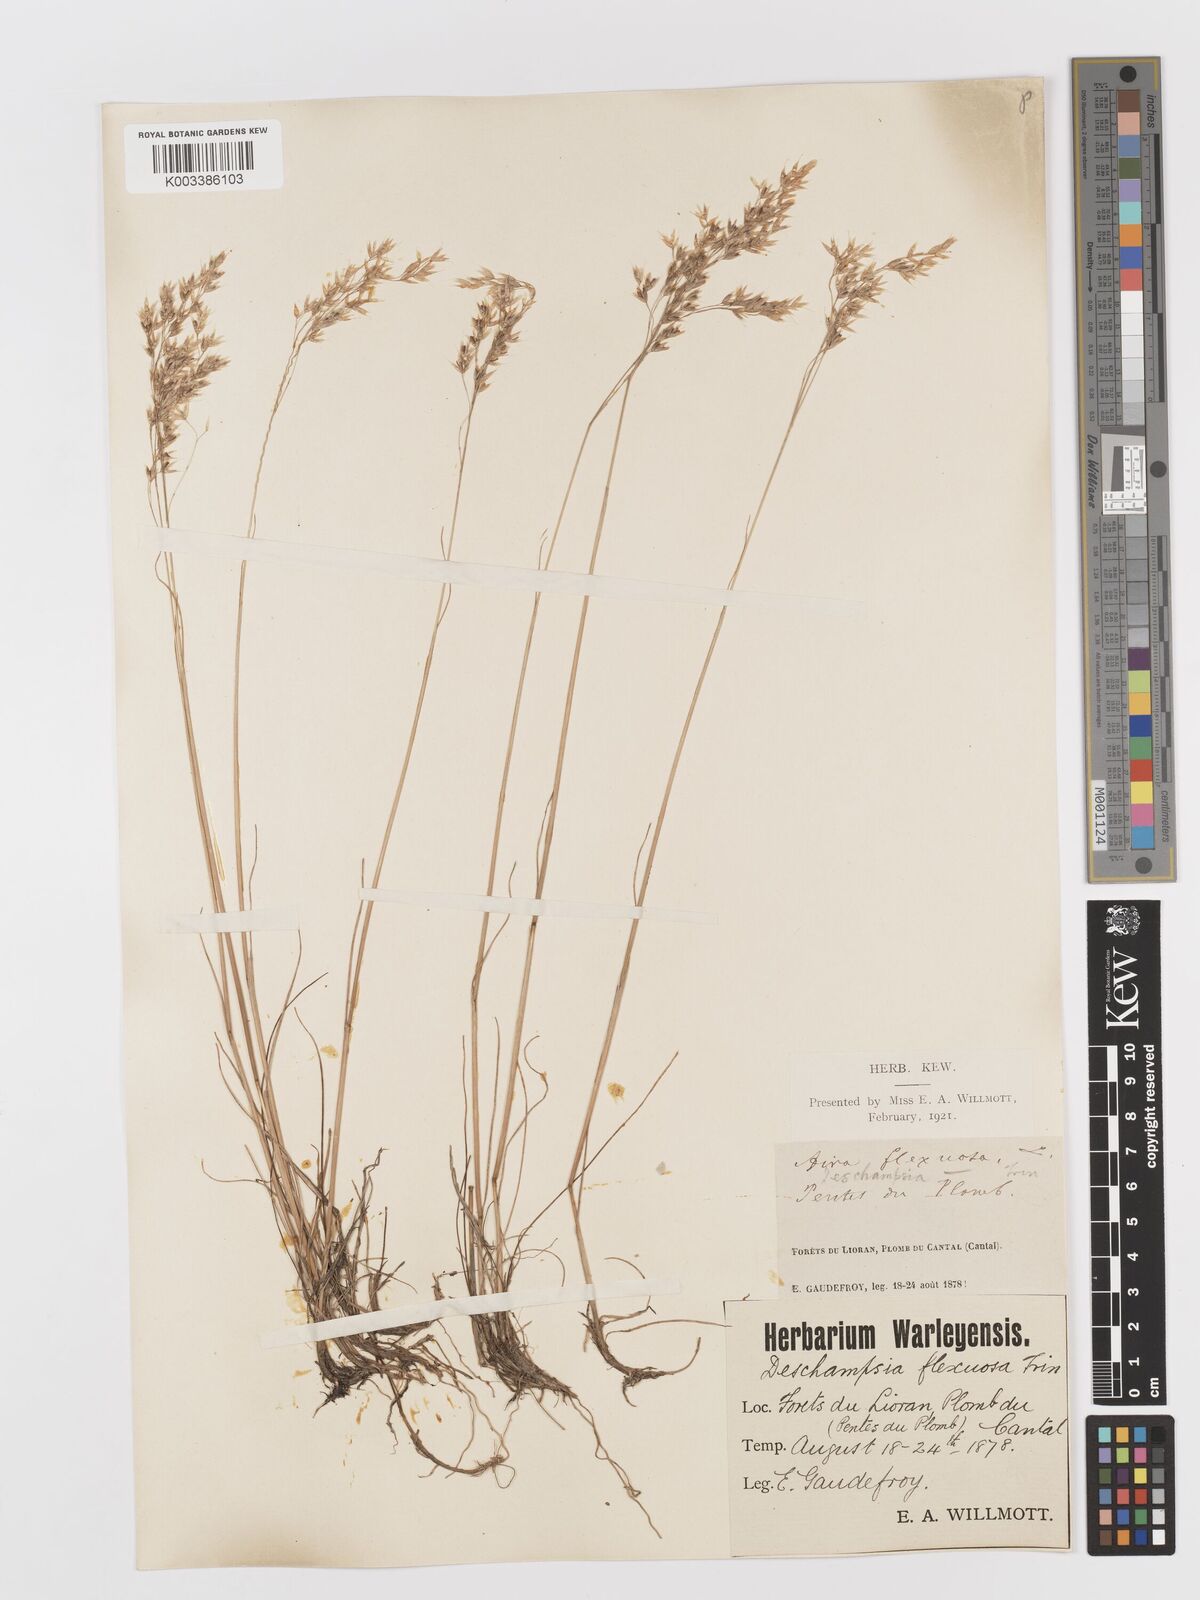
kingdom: Plantae
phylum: Tracheophyta
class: Liliopsida
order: Poales
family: Poaceae
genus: Avenella
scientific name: Avenella flexuosa
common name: Wavy hairgrass
